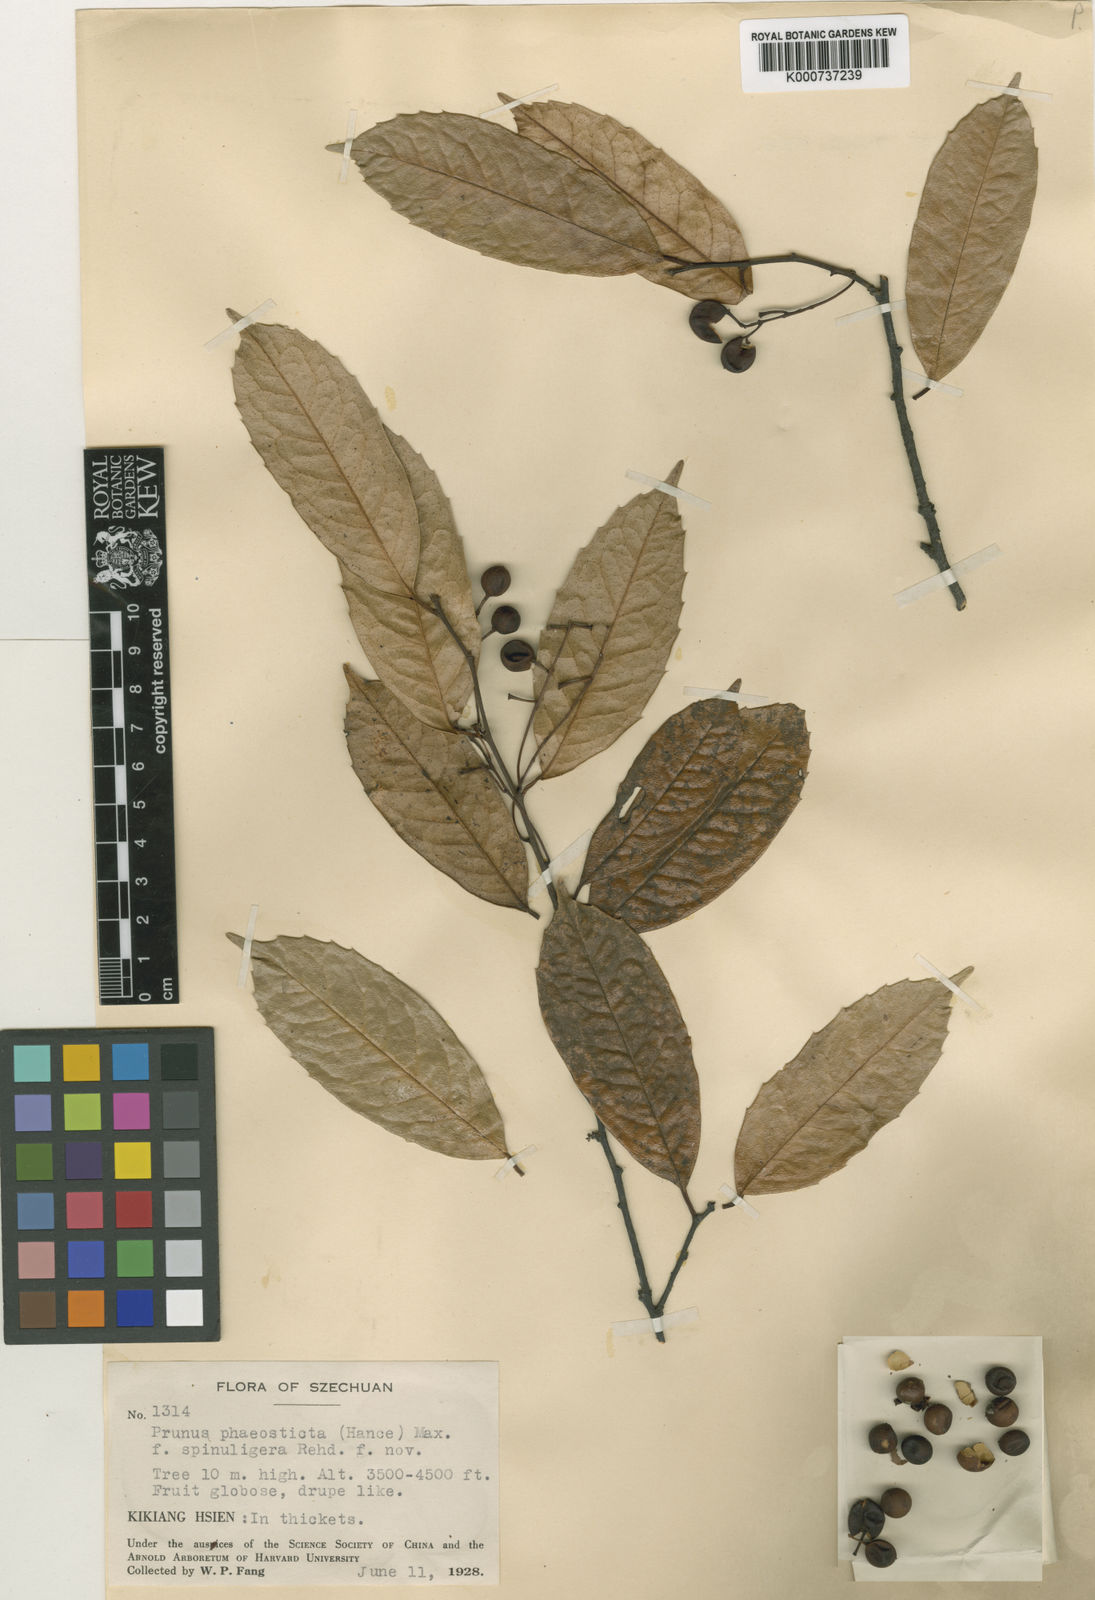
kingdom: Plantae
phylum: Tracheophyta
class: Magnoliopsida
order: Rosales
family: Rosaceae
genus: Prunus
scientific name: Prunus phaeosticta
